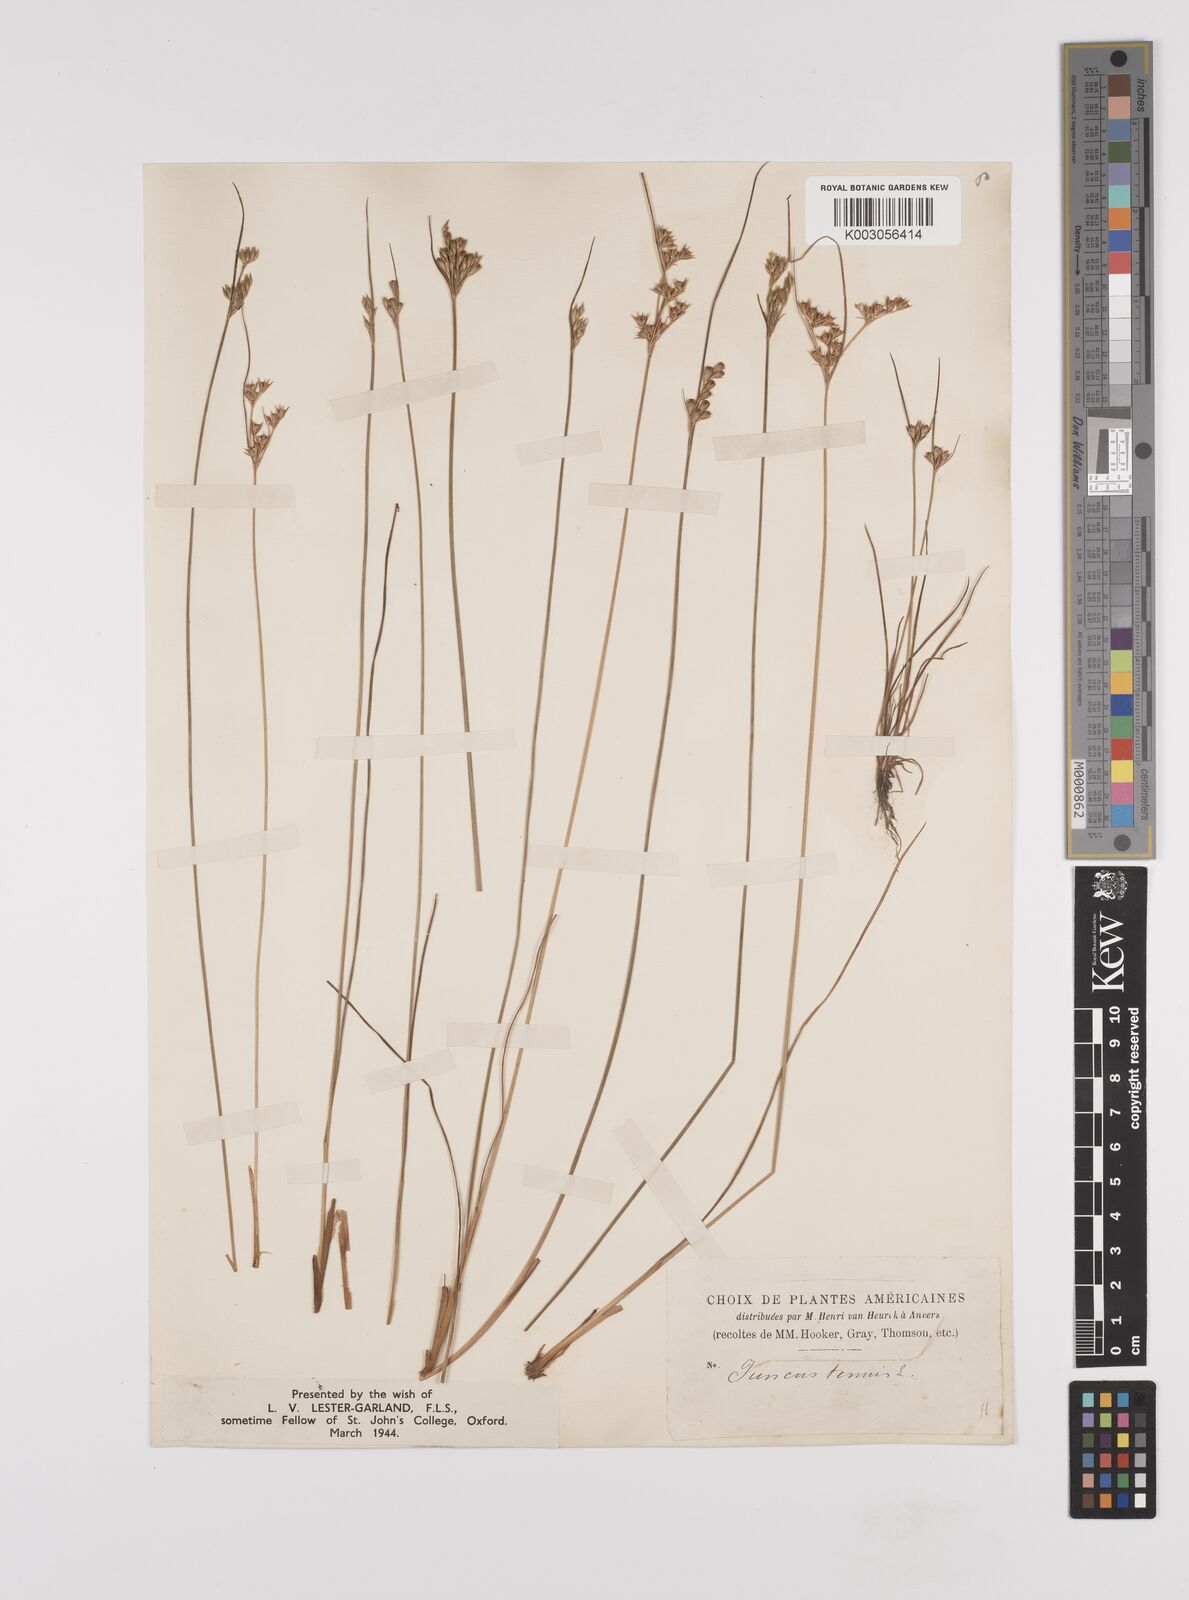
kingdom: Plantae
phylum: Tracheophyta
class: Liliopsida
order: Poales
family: Juncaceae
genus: Juncus
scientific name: Juncus tenuis
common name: Slender rush
